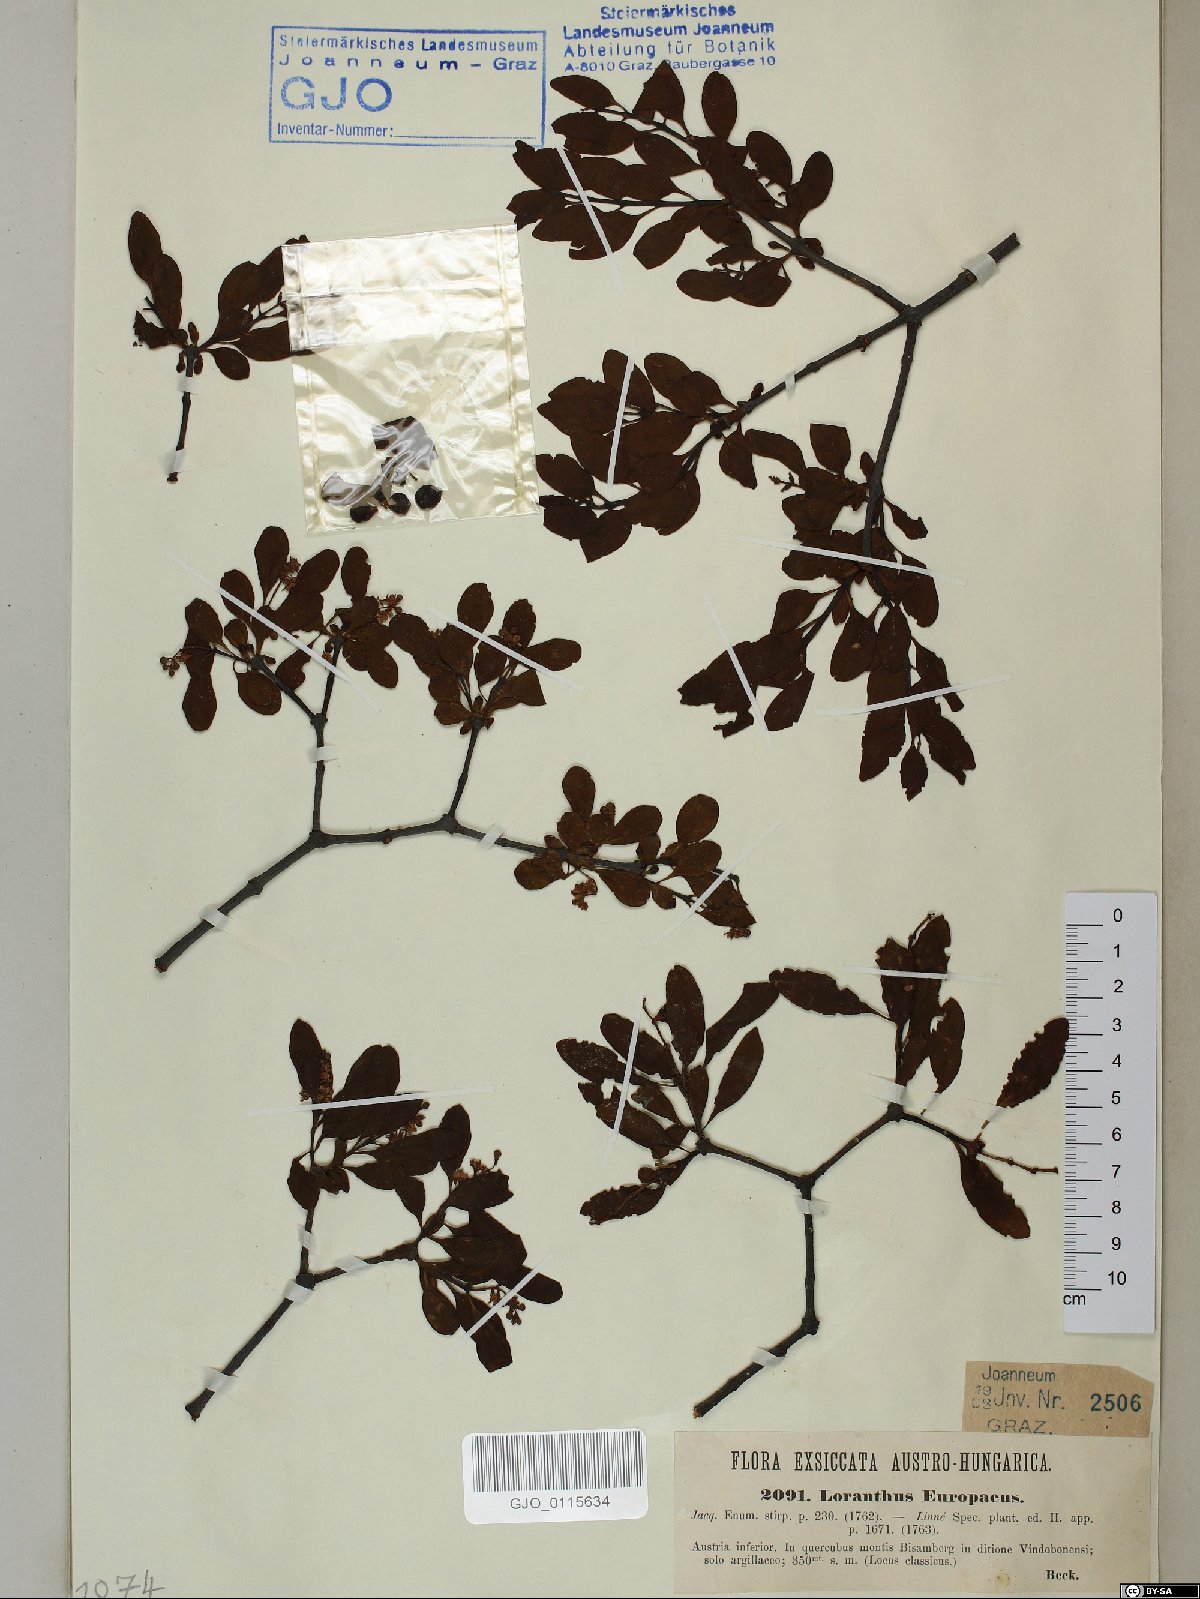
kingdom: Plantae
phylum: Tracheophyta
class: Magnoliopsida
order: Santalales
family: Loranthaceae
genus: Loranthus
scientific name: Loranthus europaeus
